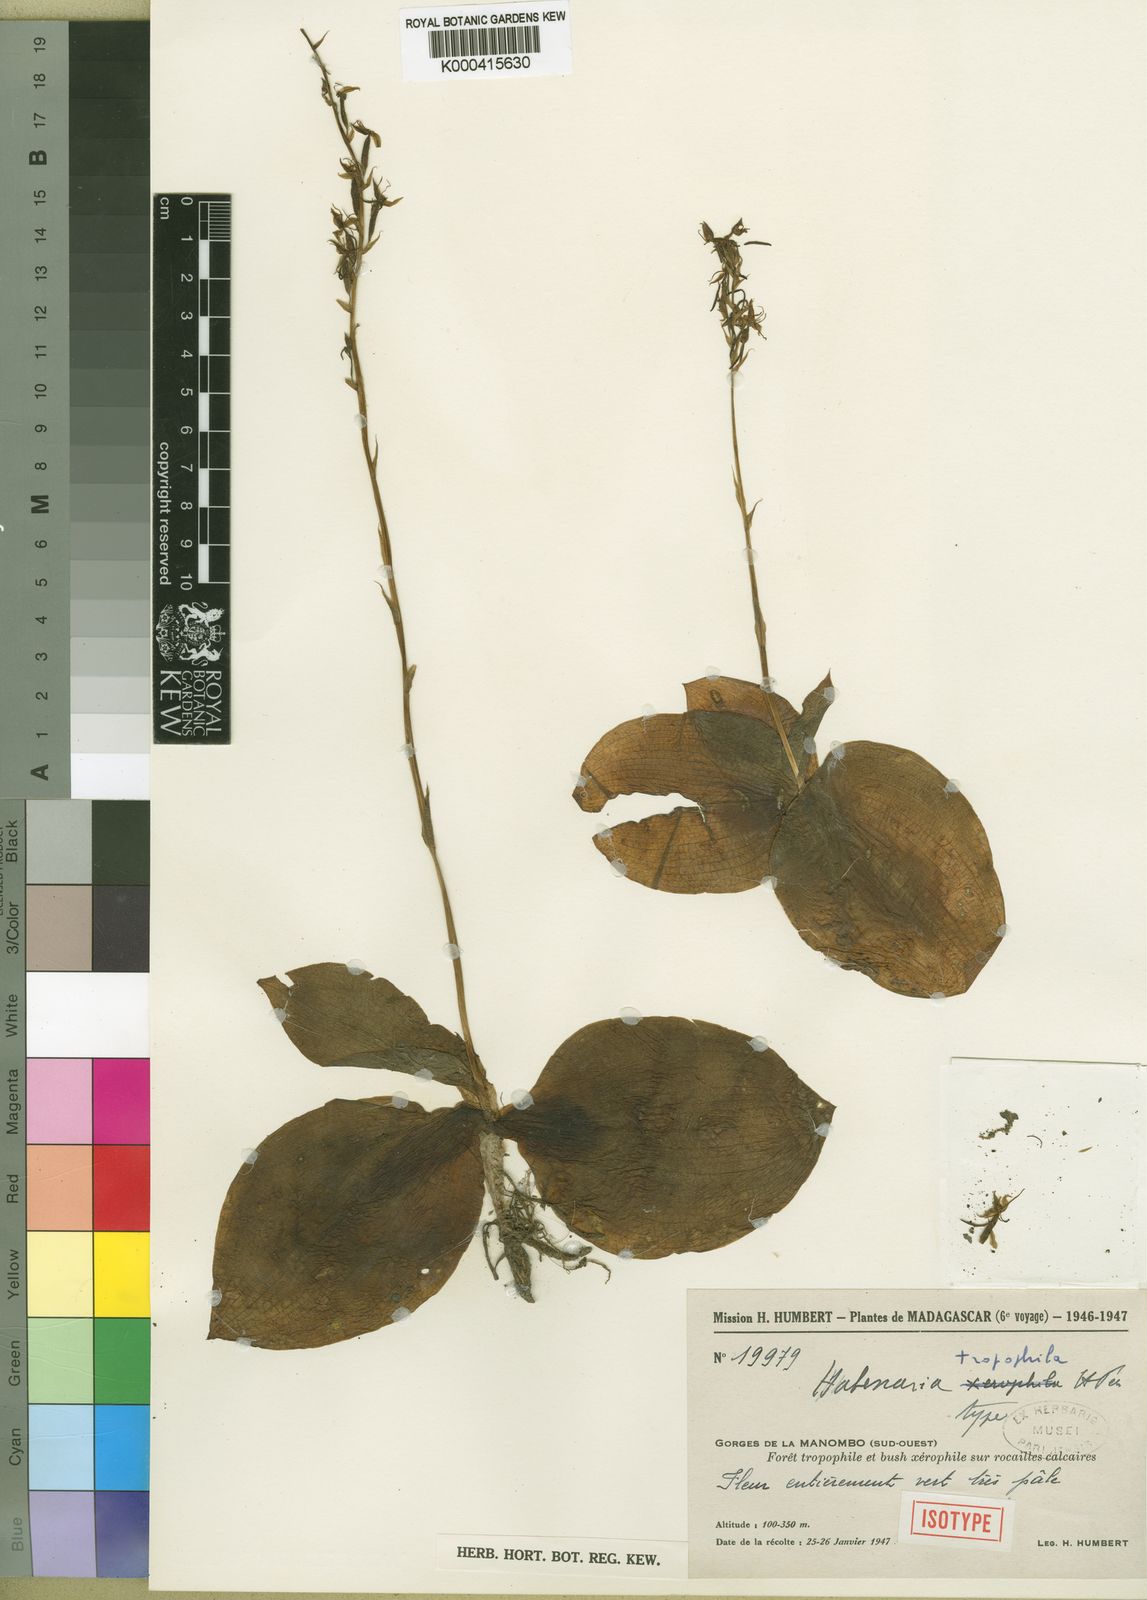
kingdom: Plantae
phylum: Tracheophyta
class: Liliopsida
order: Asparagales
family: Orchidaceae
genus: Habenaria
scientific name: Habenaria tropophila
